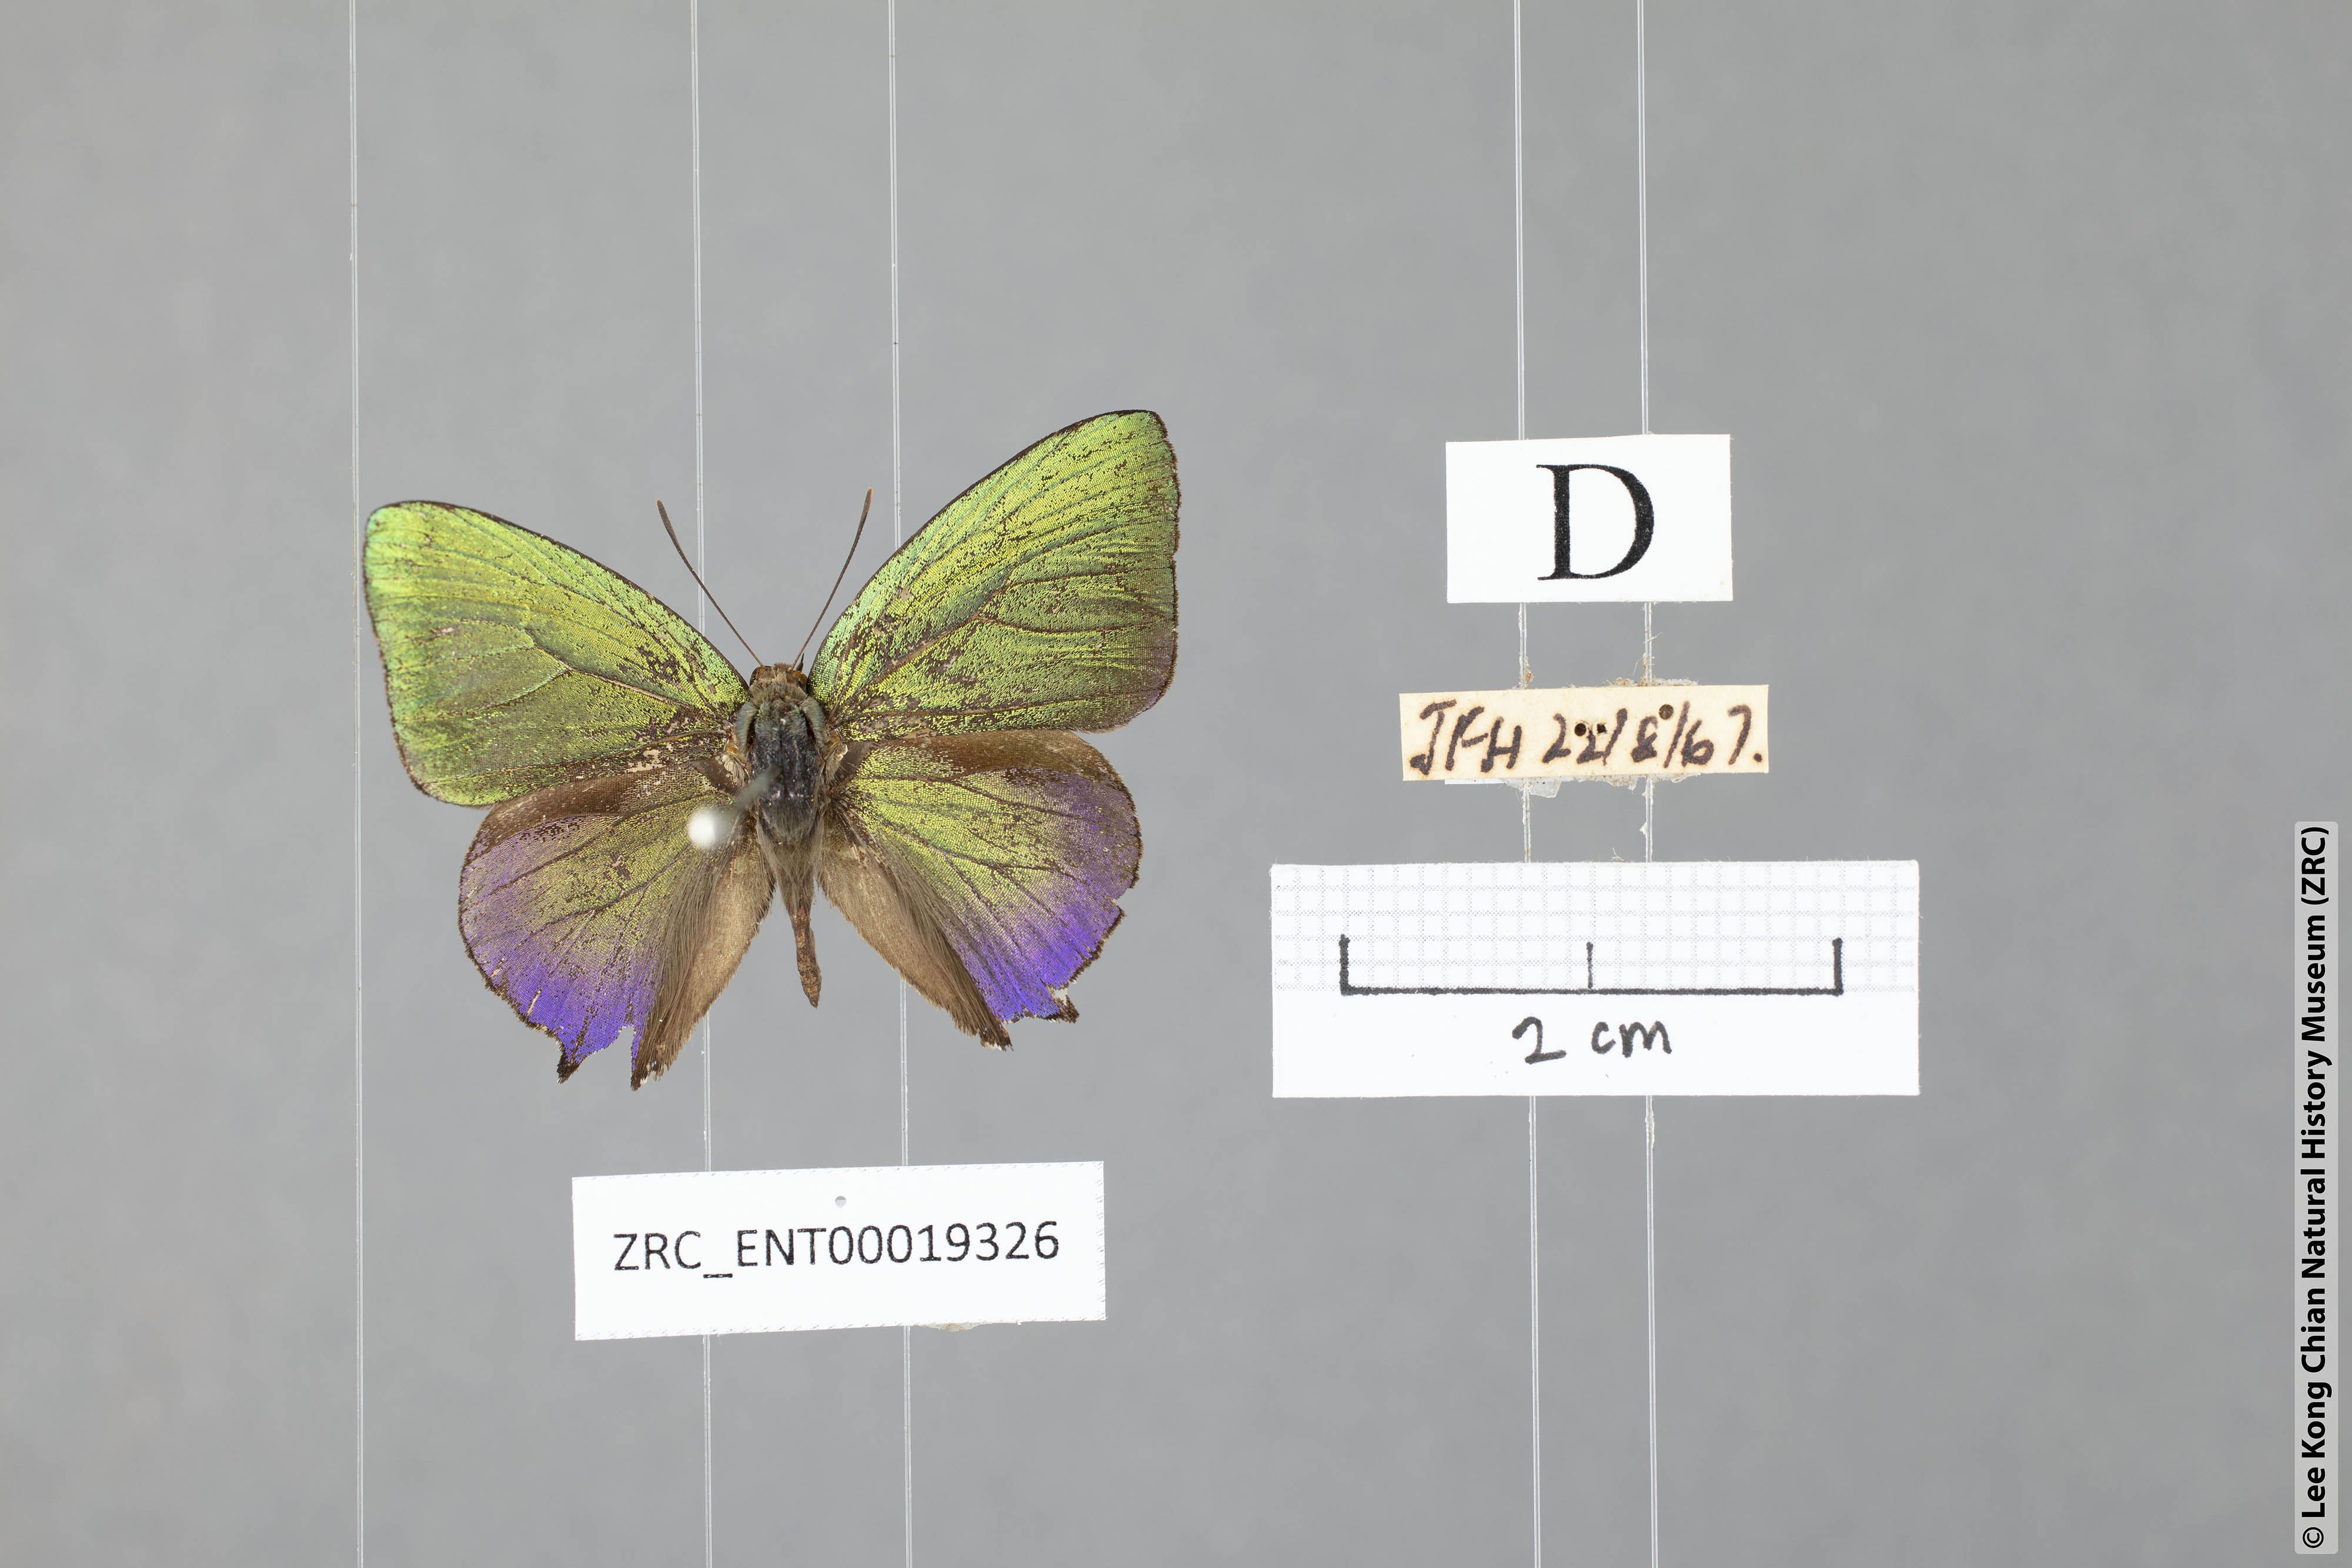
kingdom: Animalia
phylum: Arthropoda
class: Insecta
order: Lepidoptera
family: Lycaenidae
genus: Arhopala
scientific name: Arhopala caea
